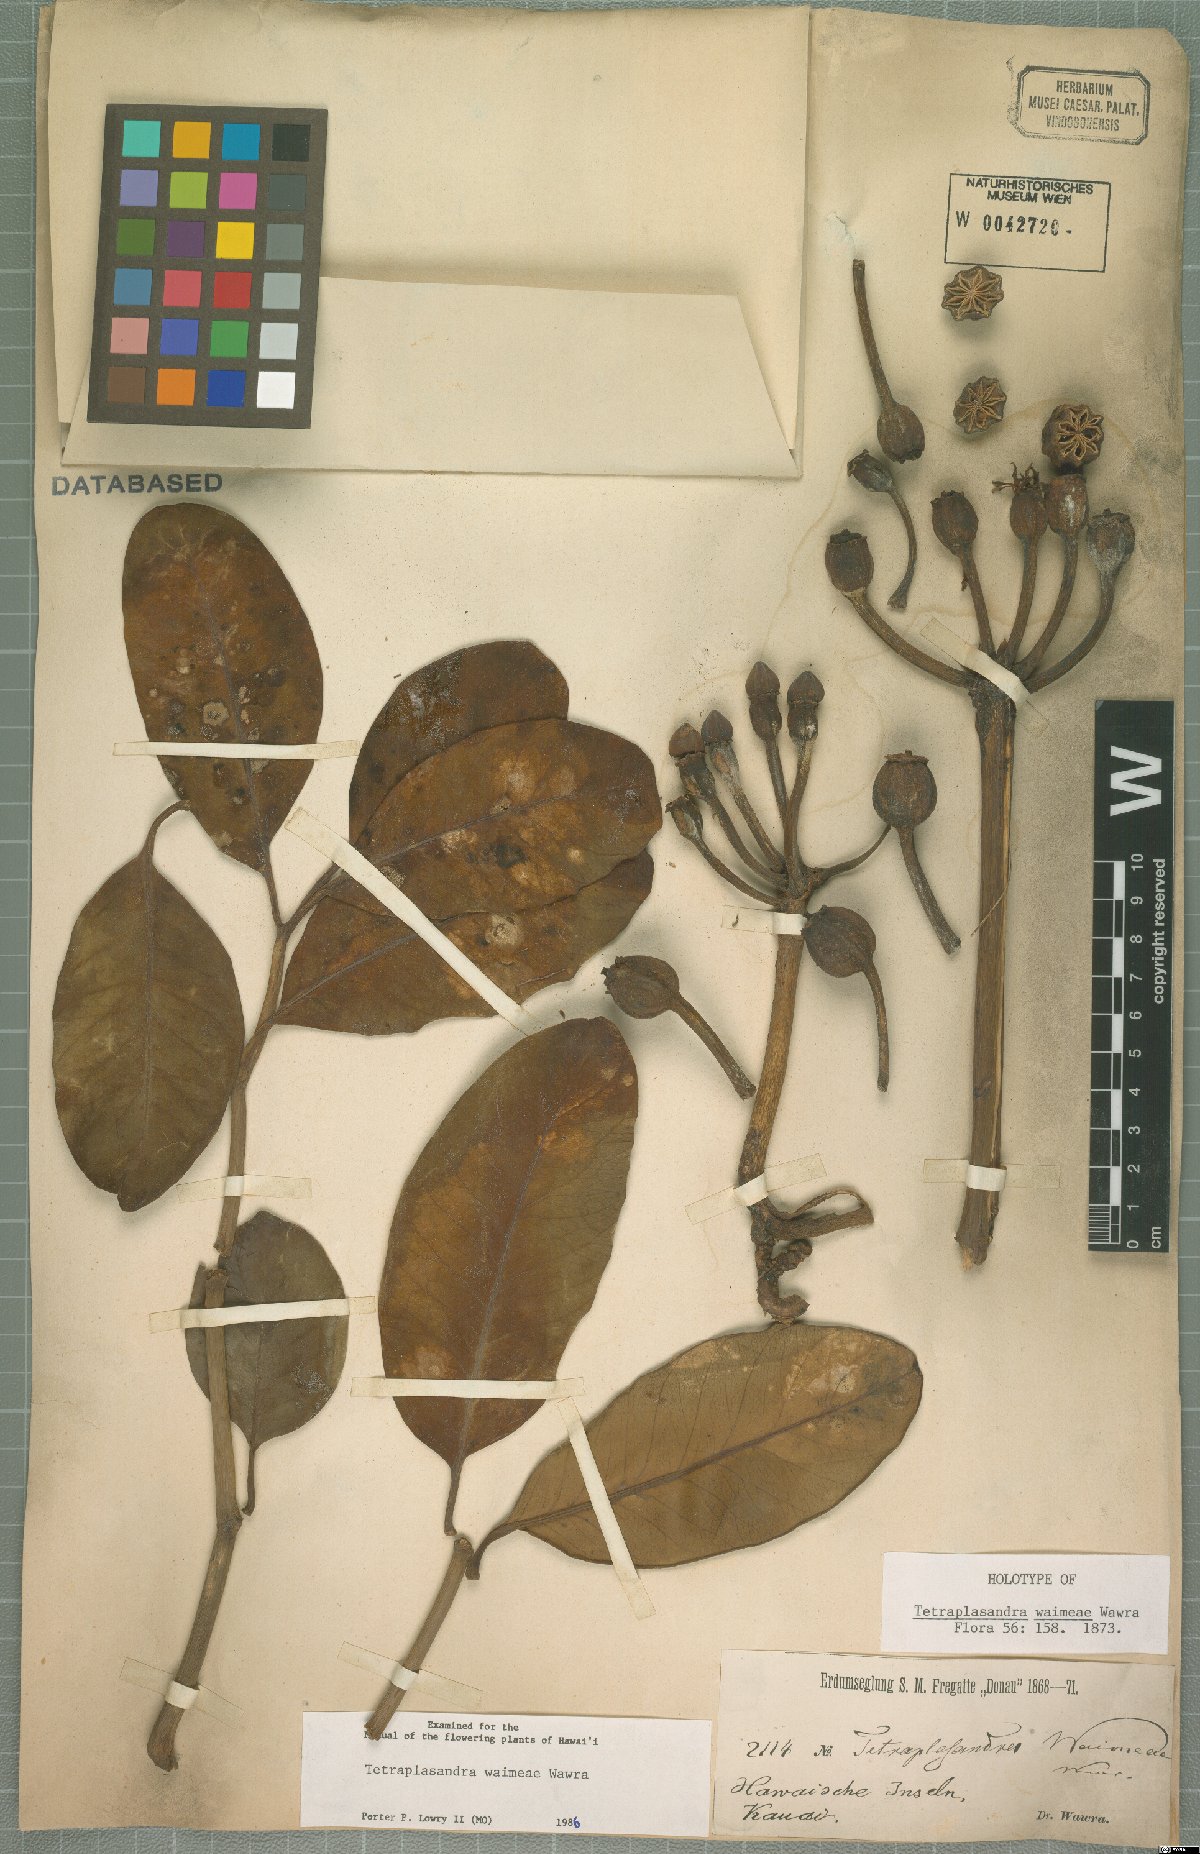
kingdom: Plantae
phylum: Tracheophyta
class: Magnoliopsida
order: Apiales
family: Araliaceae
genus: Polyscias
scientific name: Polyscias waimeae
